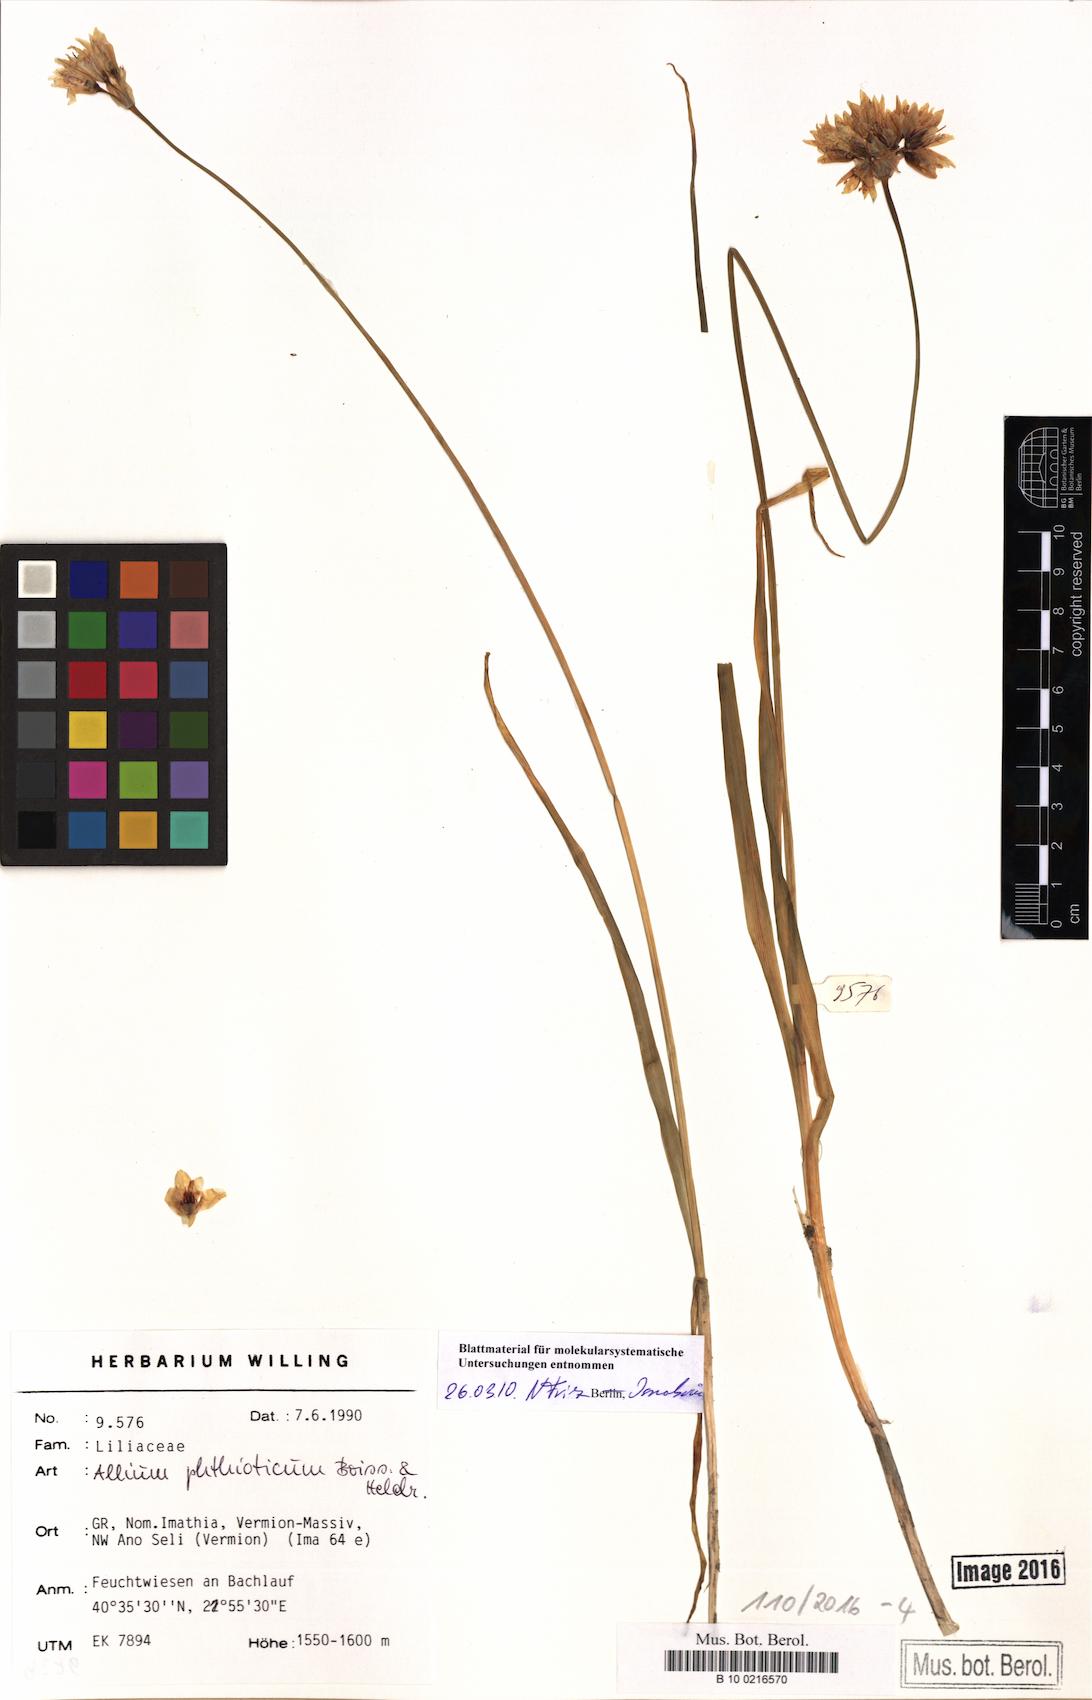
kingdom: Plantae
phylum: Tracheophyta
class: Liliopsida
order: Asparagales
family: Amaryllidaceae
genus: Allium
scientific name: Allium phthioticum
